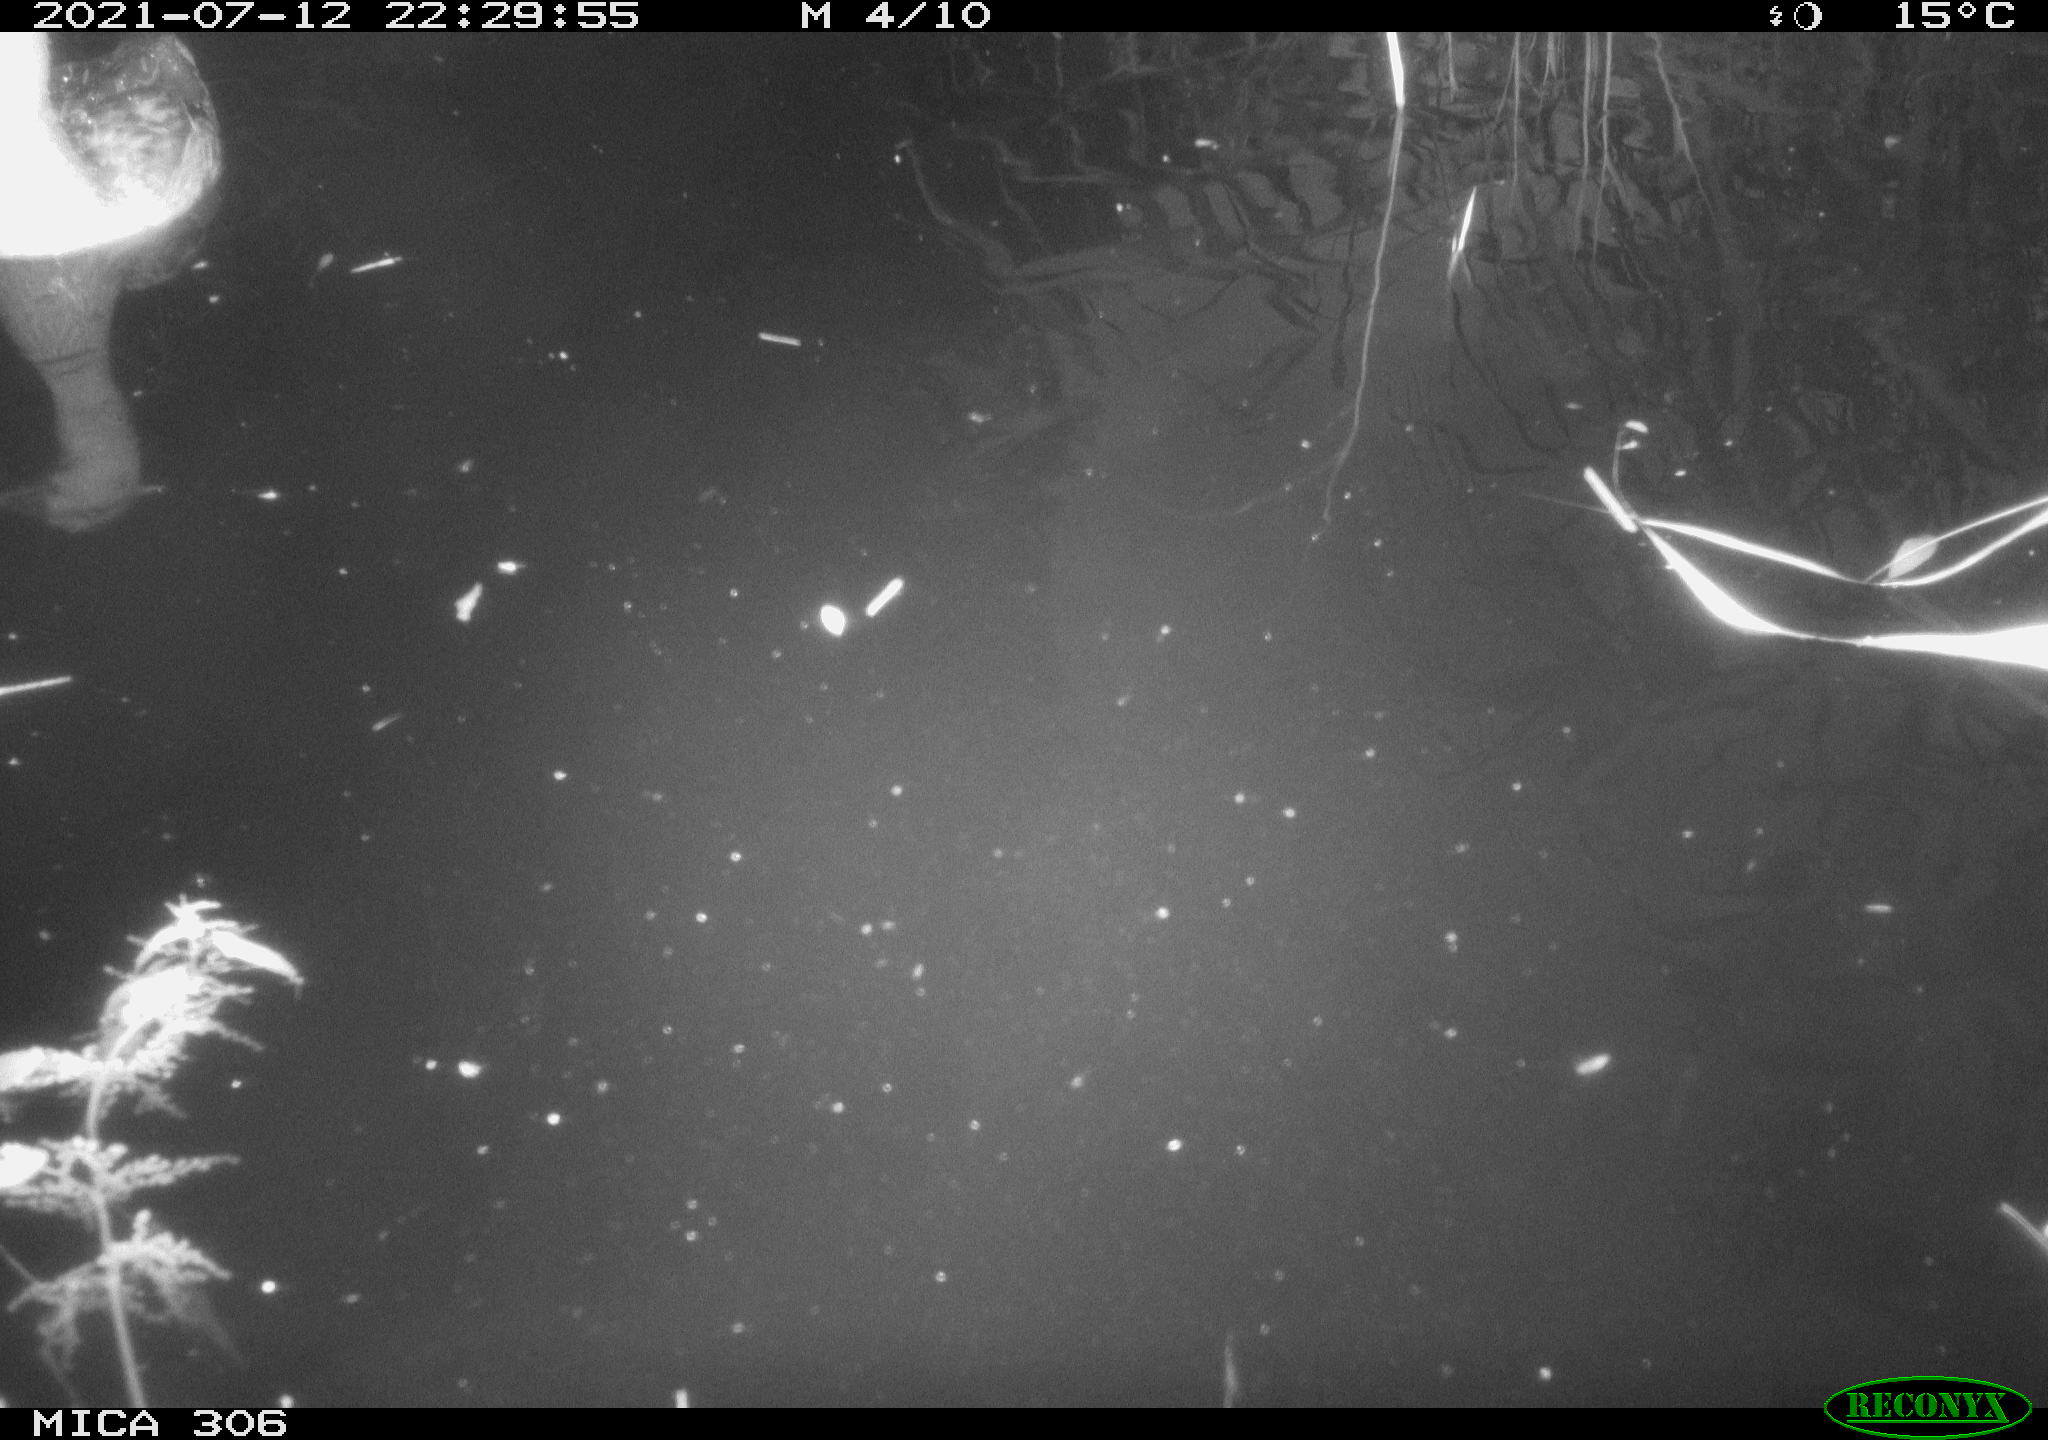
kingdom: Animalia
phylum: Chordata
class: Aves
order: Anseriformes
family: Anatidae
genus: Anser
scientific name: Anser anser
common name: Greylag goose
